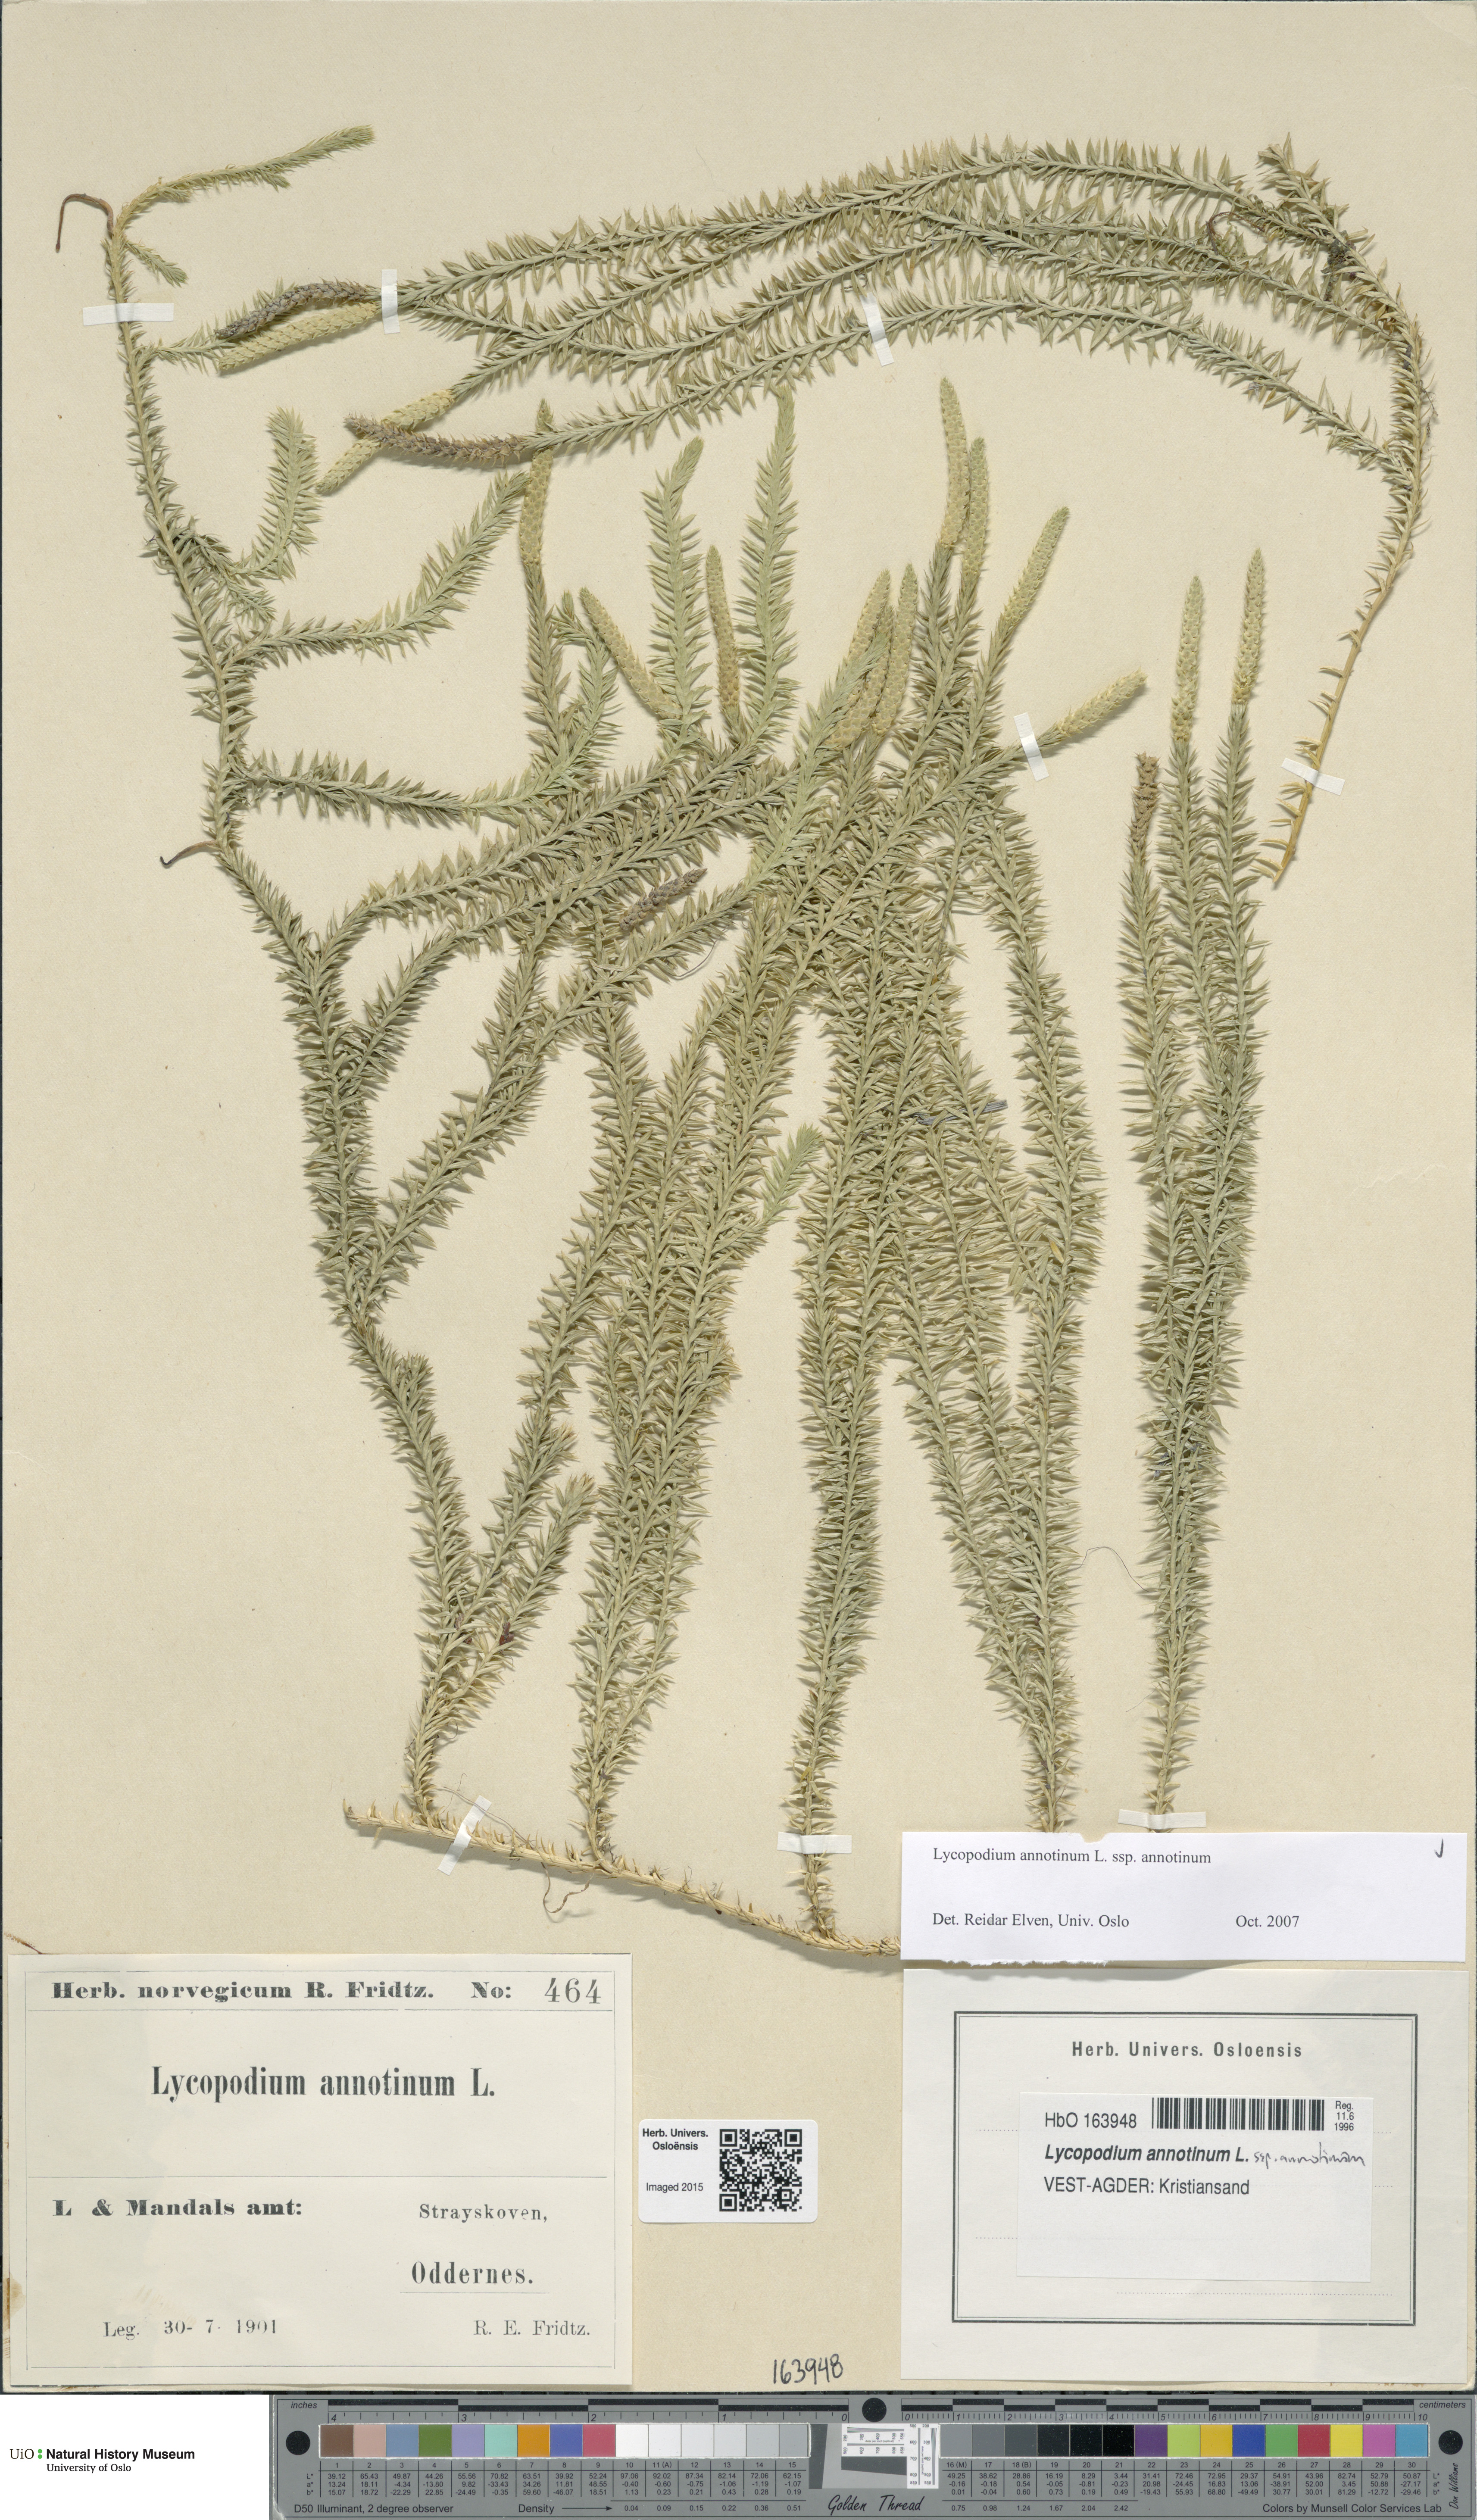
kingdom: Plantae
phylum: Tracheophyta
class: Lycopodiopsida
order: Lycopodiales
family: Lycopodiaceae
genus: Spinulum
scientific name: Spinulum annotinum
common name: Interrupted club-moss
